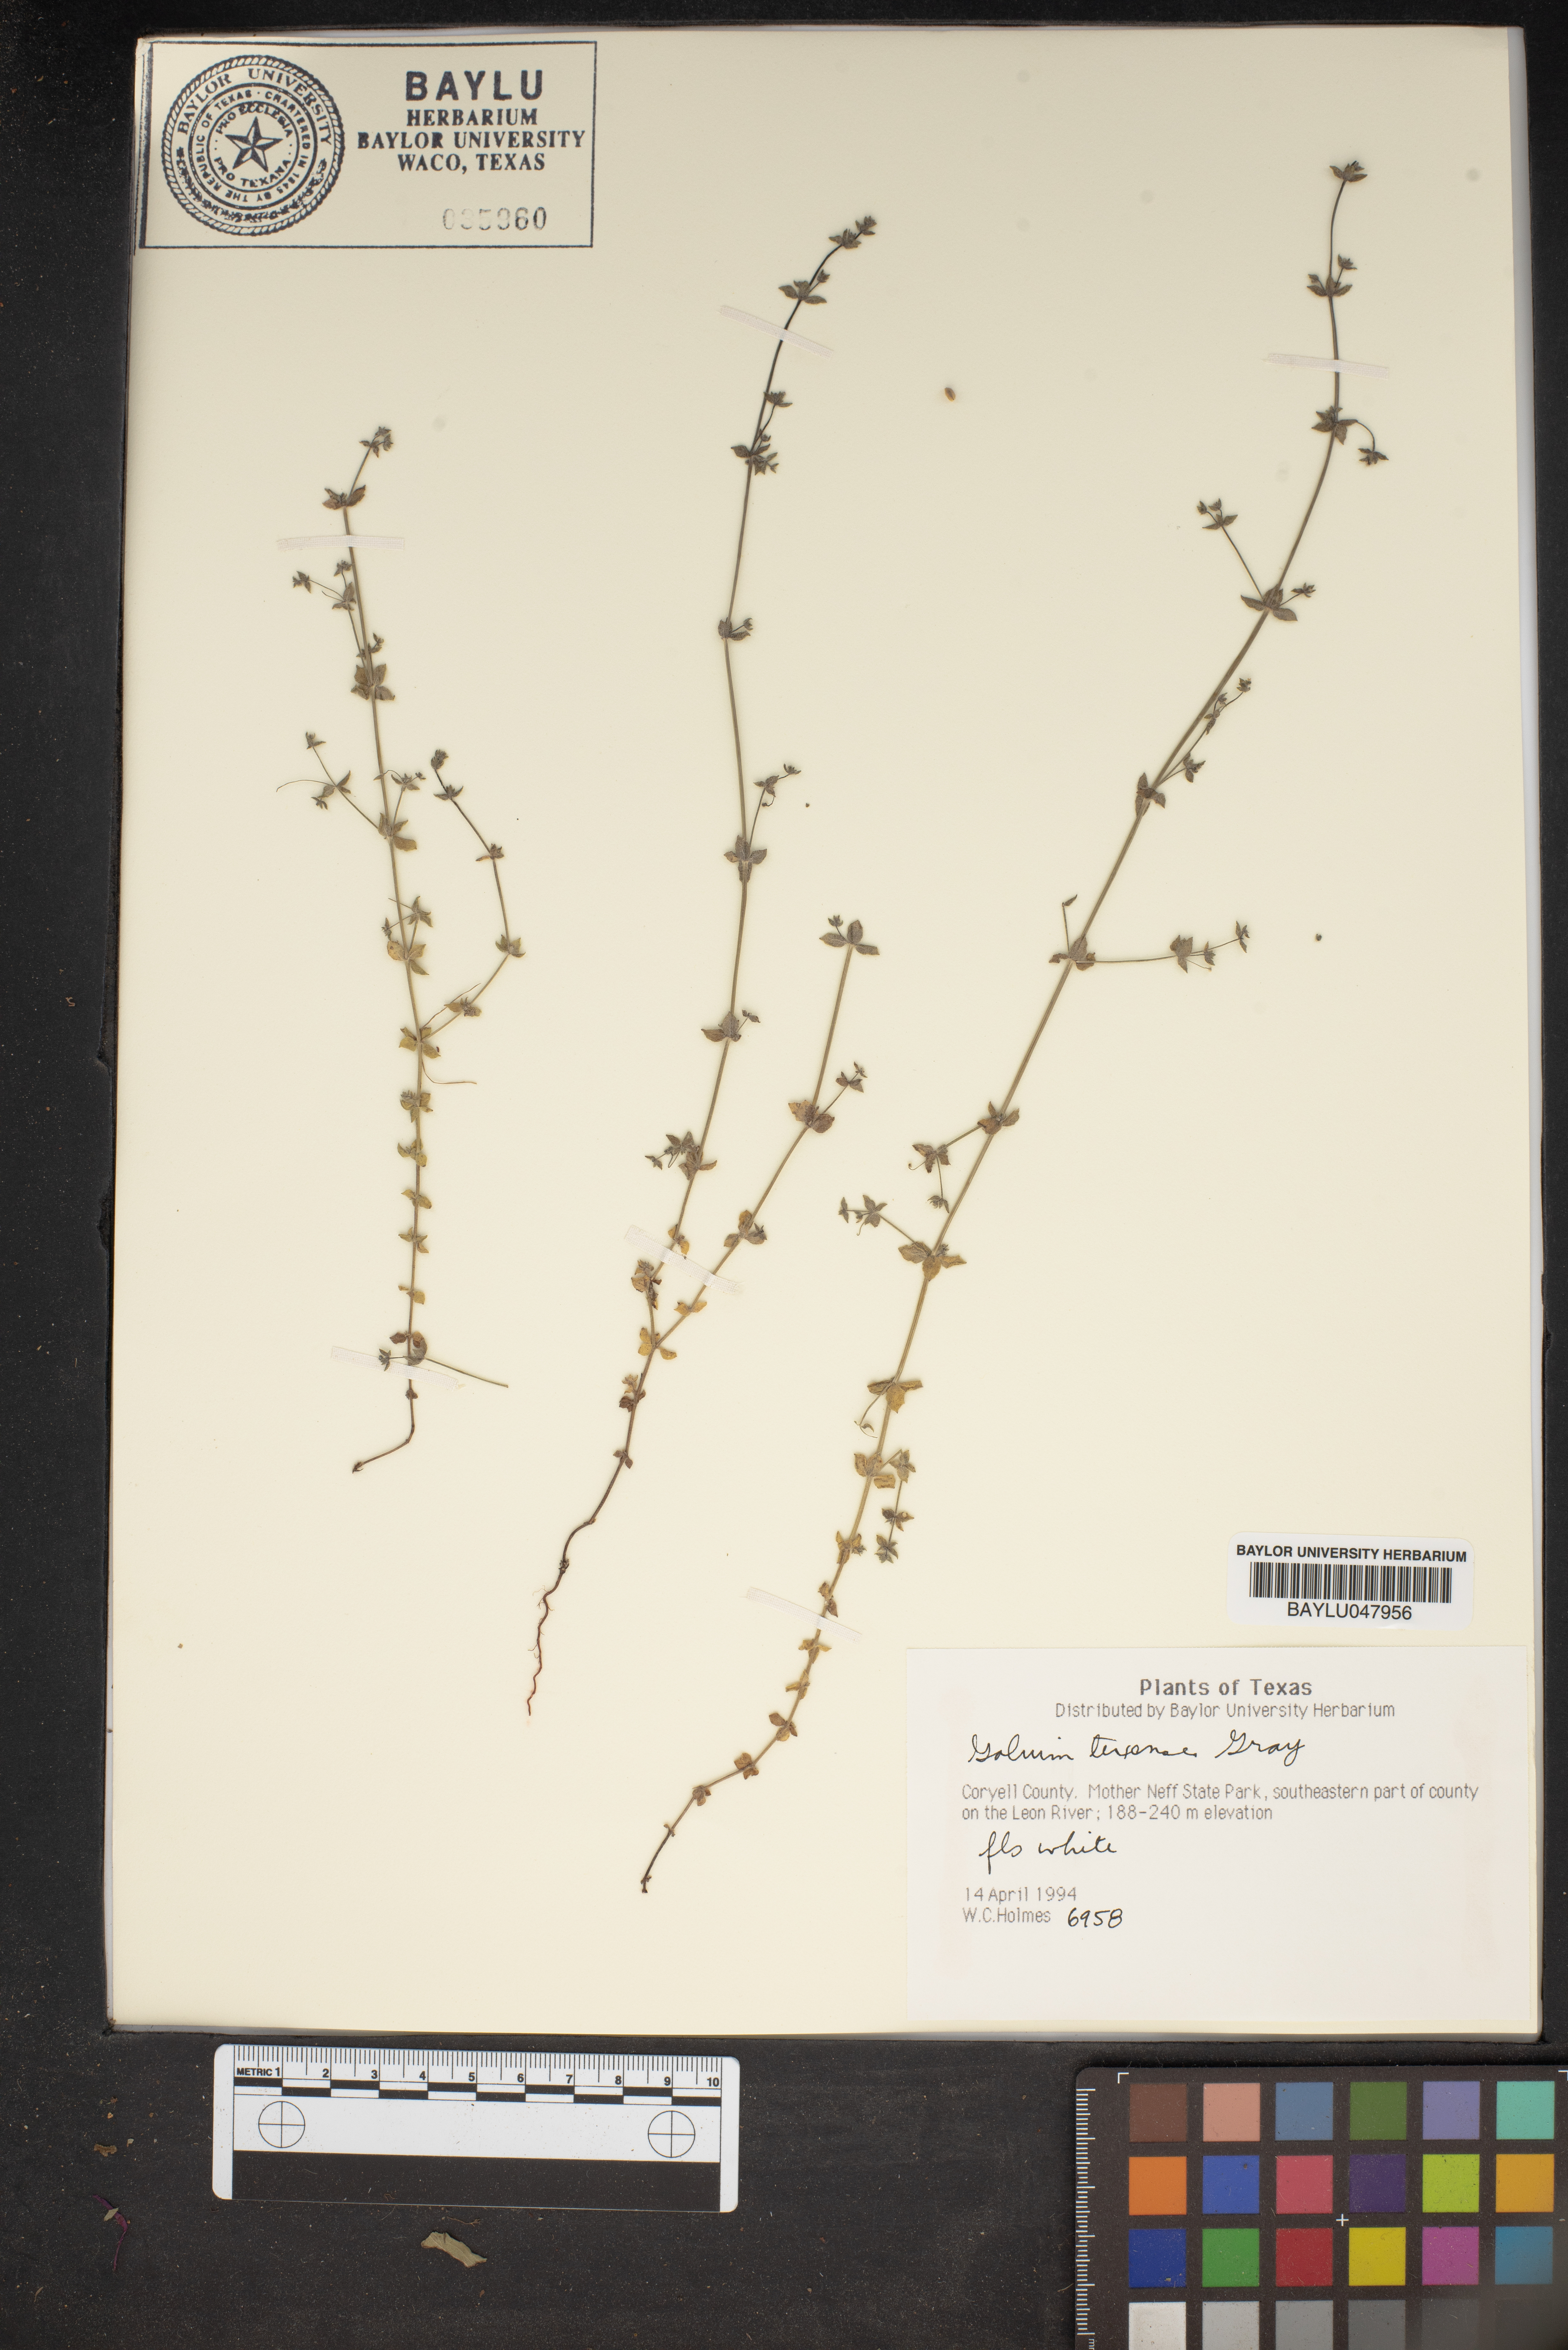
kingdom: Plantae
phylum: Tracheophyta
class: Magnoliopsida
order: Gentianales
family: Rubiaceae
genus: Galium
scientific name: Galium texense
